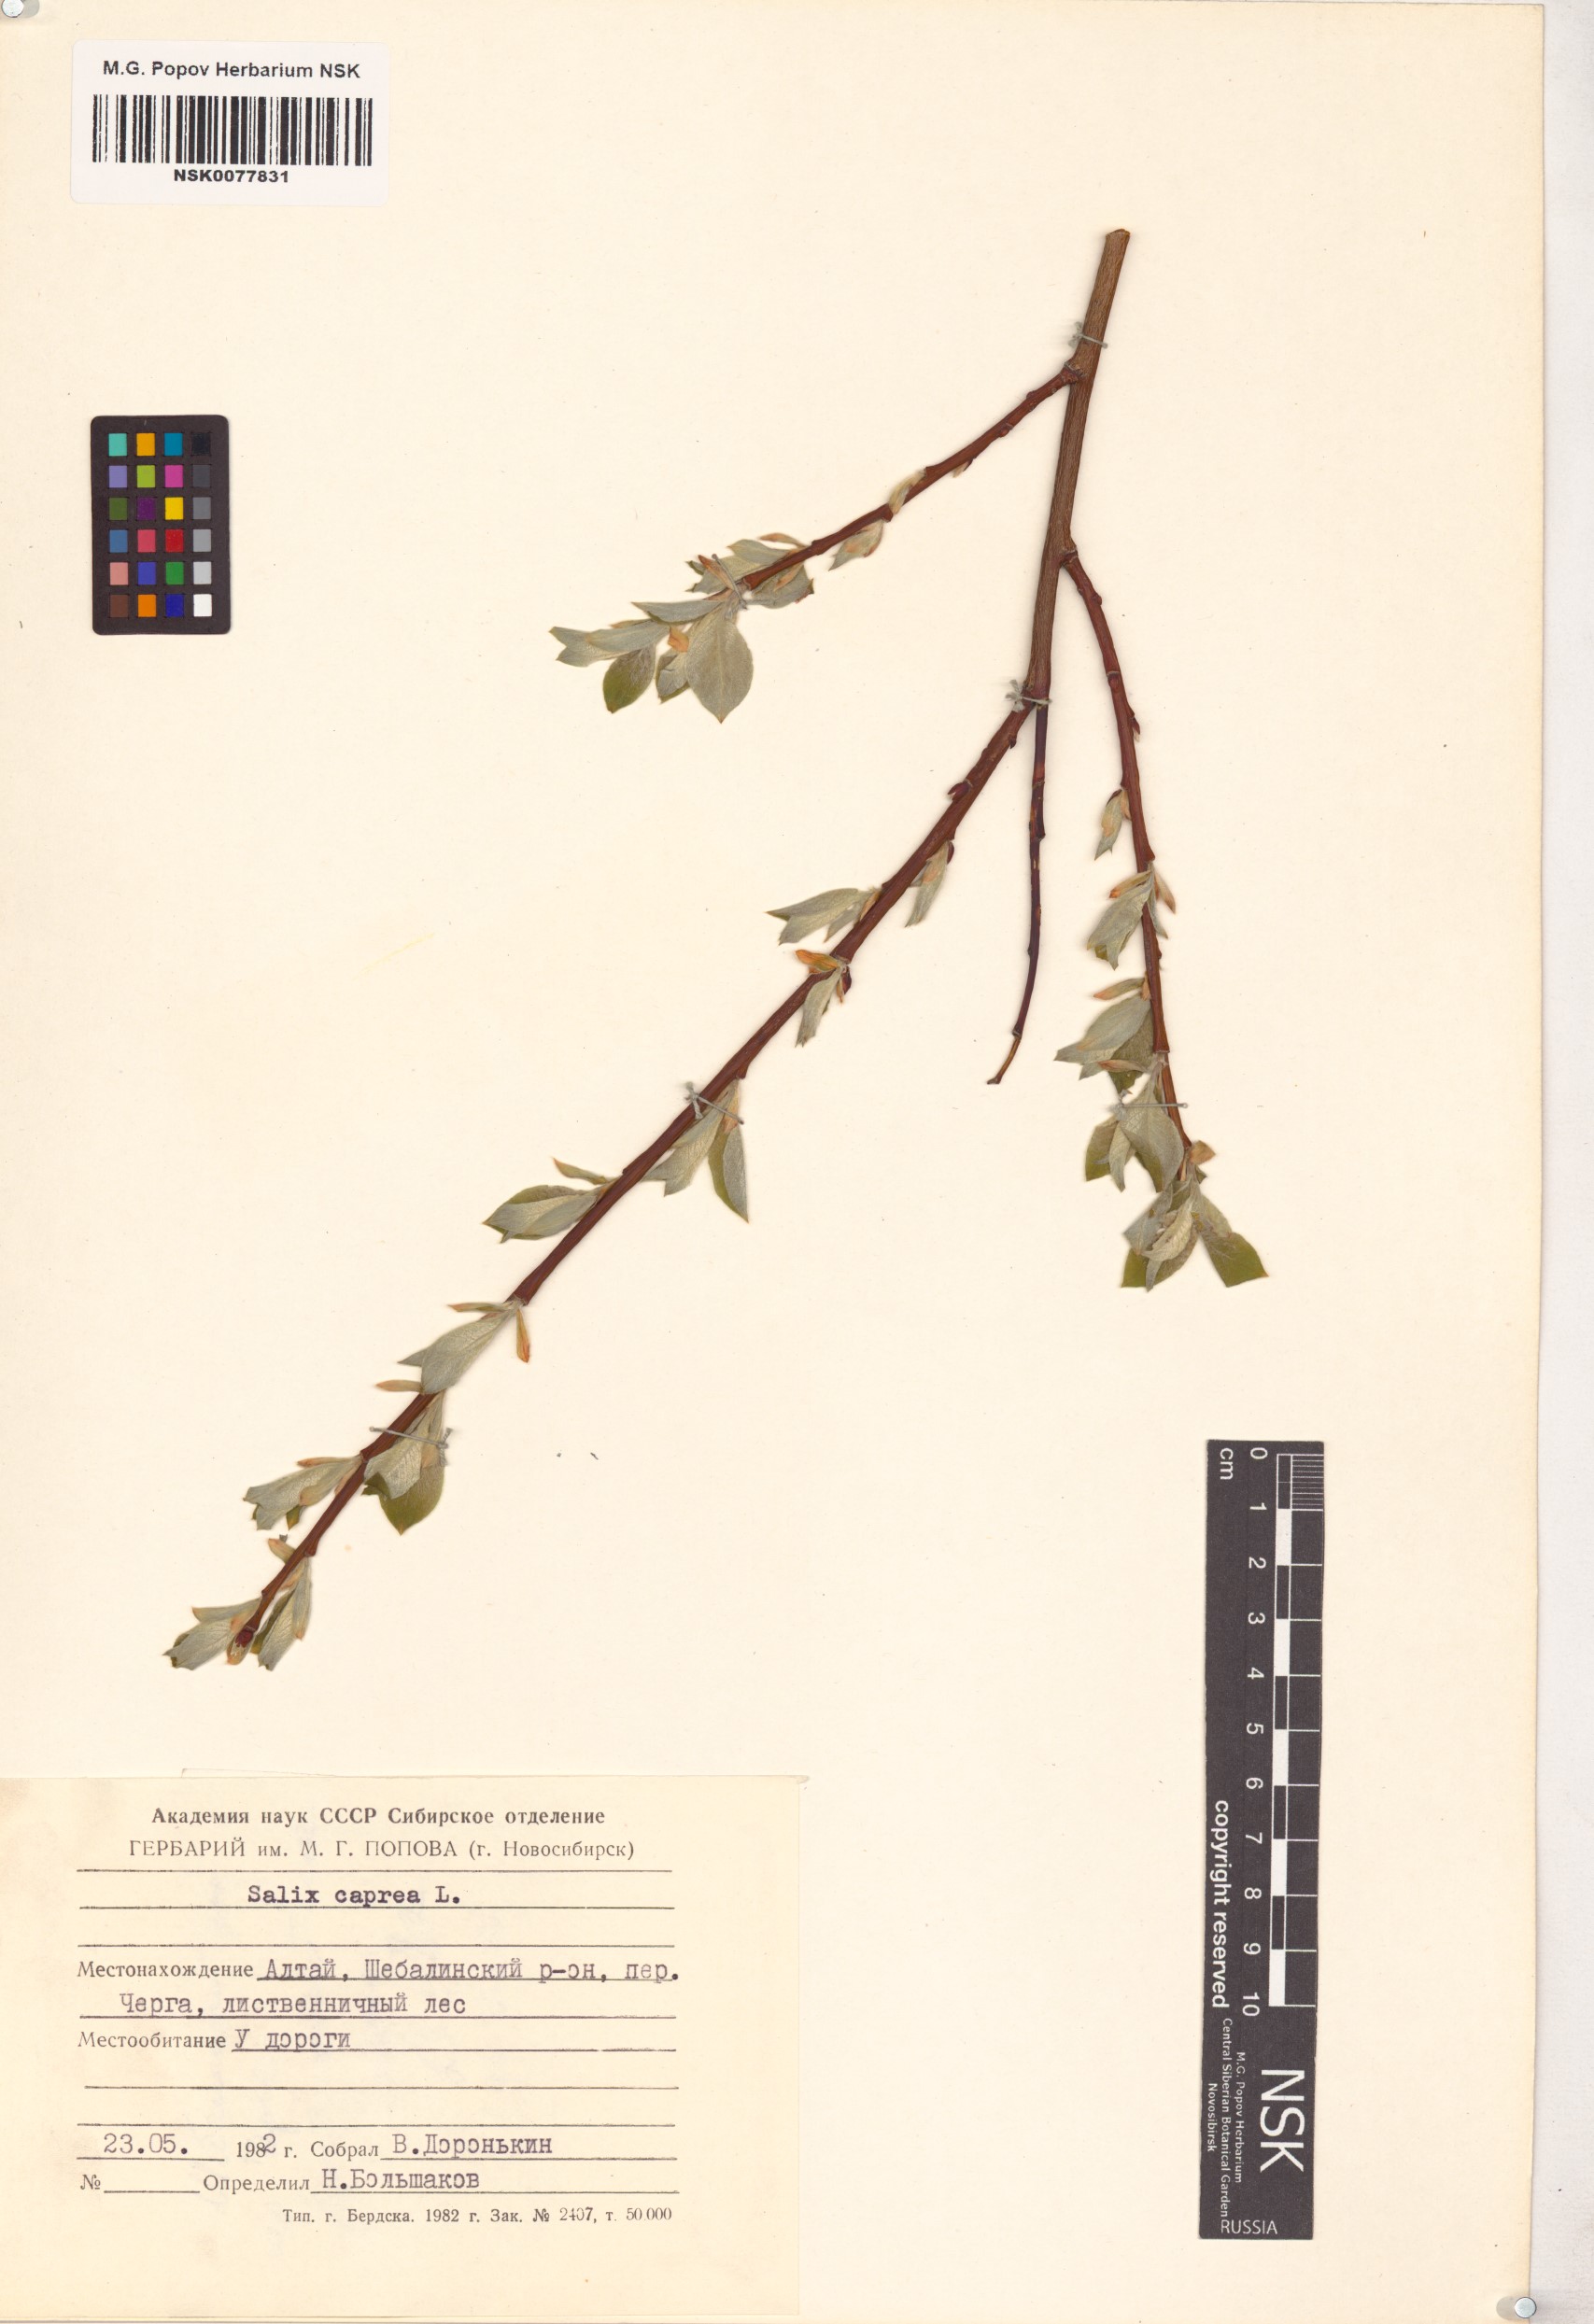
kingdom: Plantae
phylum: Tracheophyta
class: Magnoliopsida
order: Malpighiales
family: Salicaceae
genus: Salix
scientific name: Salix caprea
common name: Goat willow
